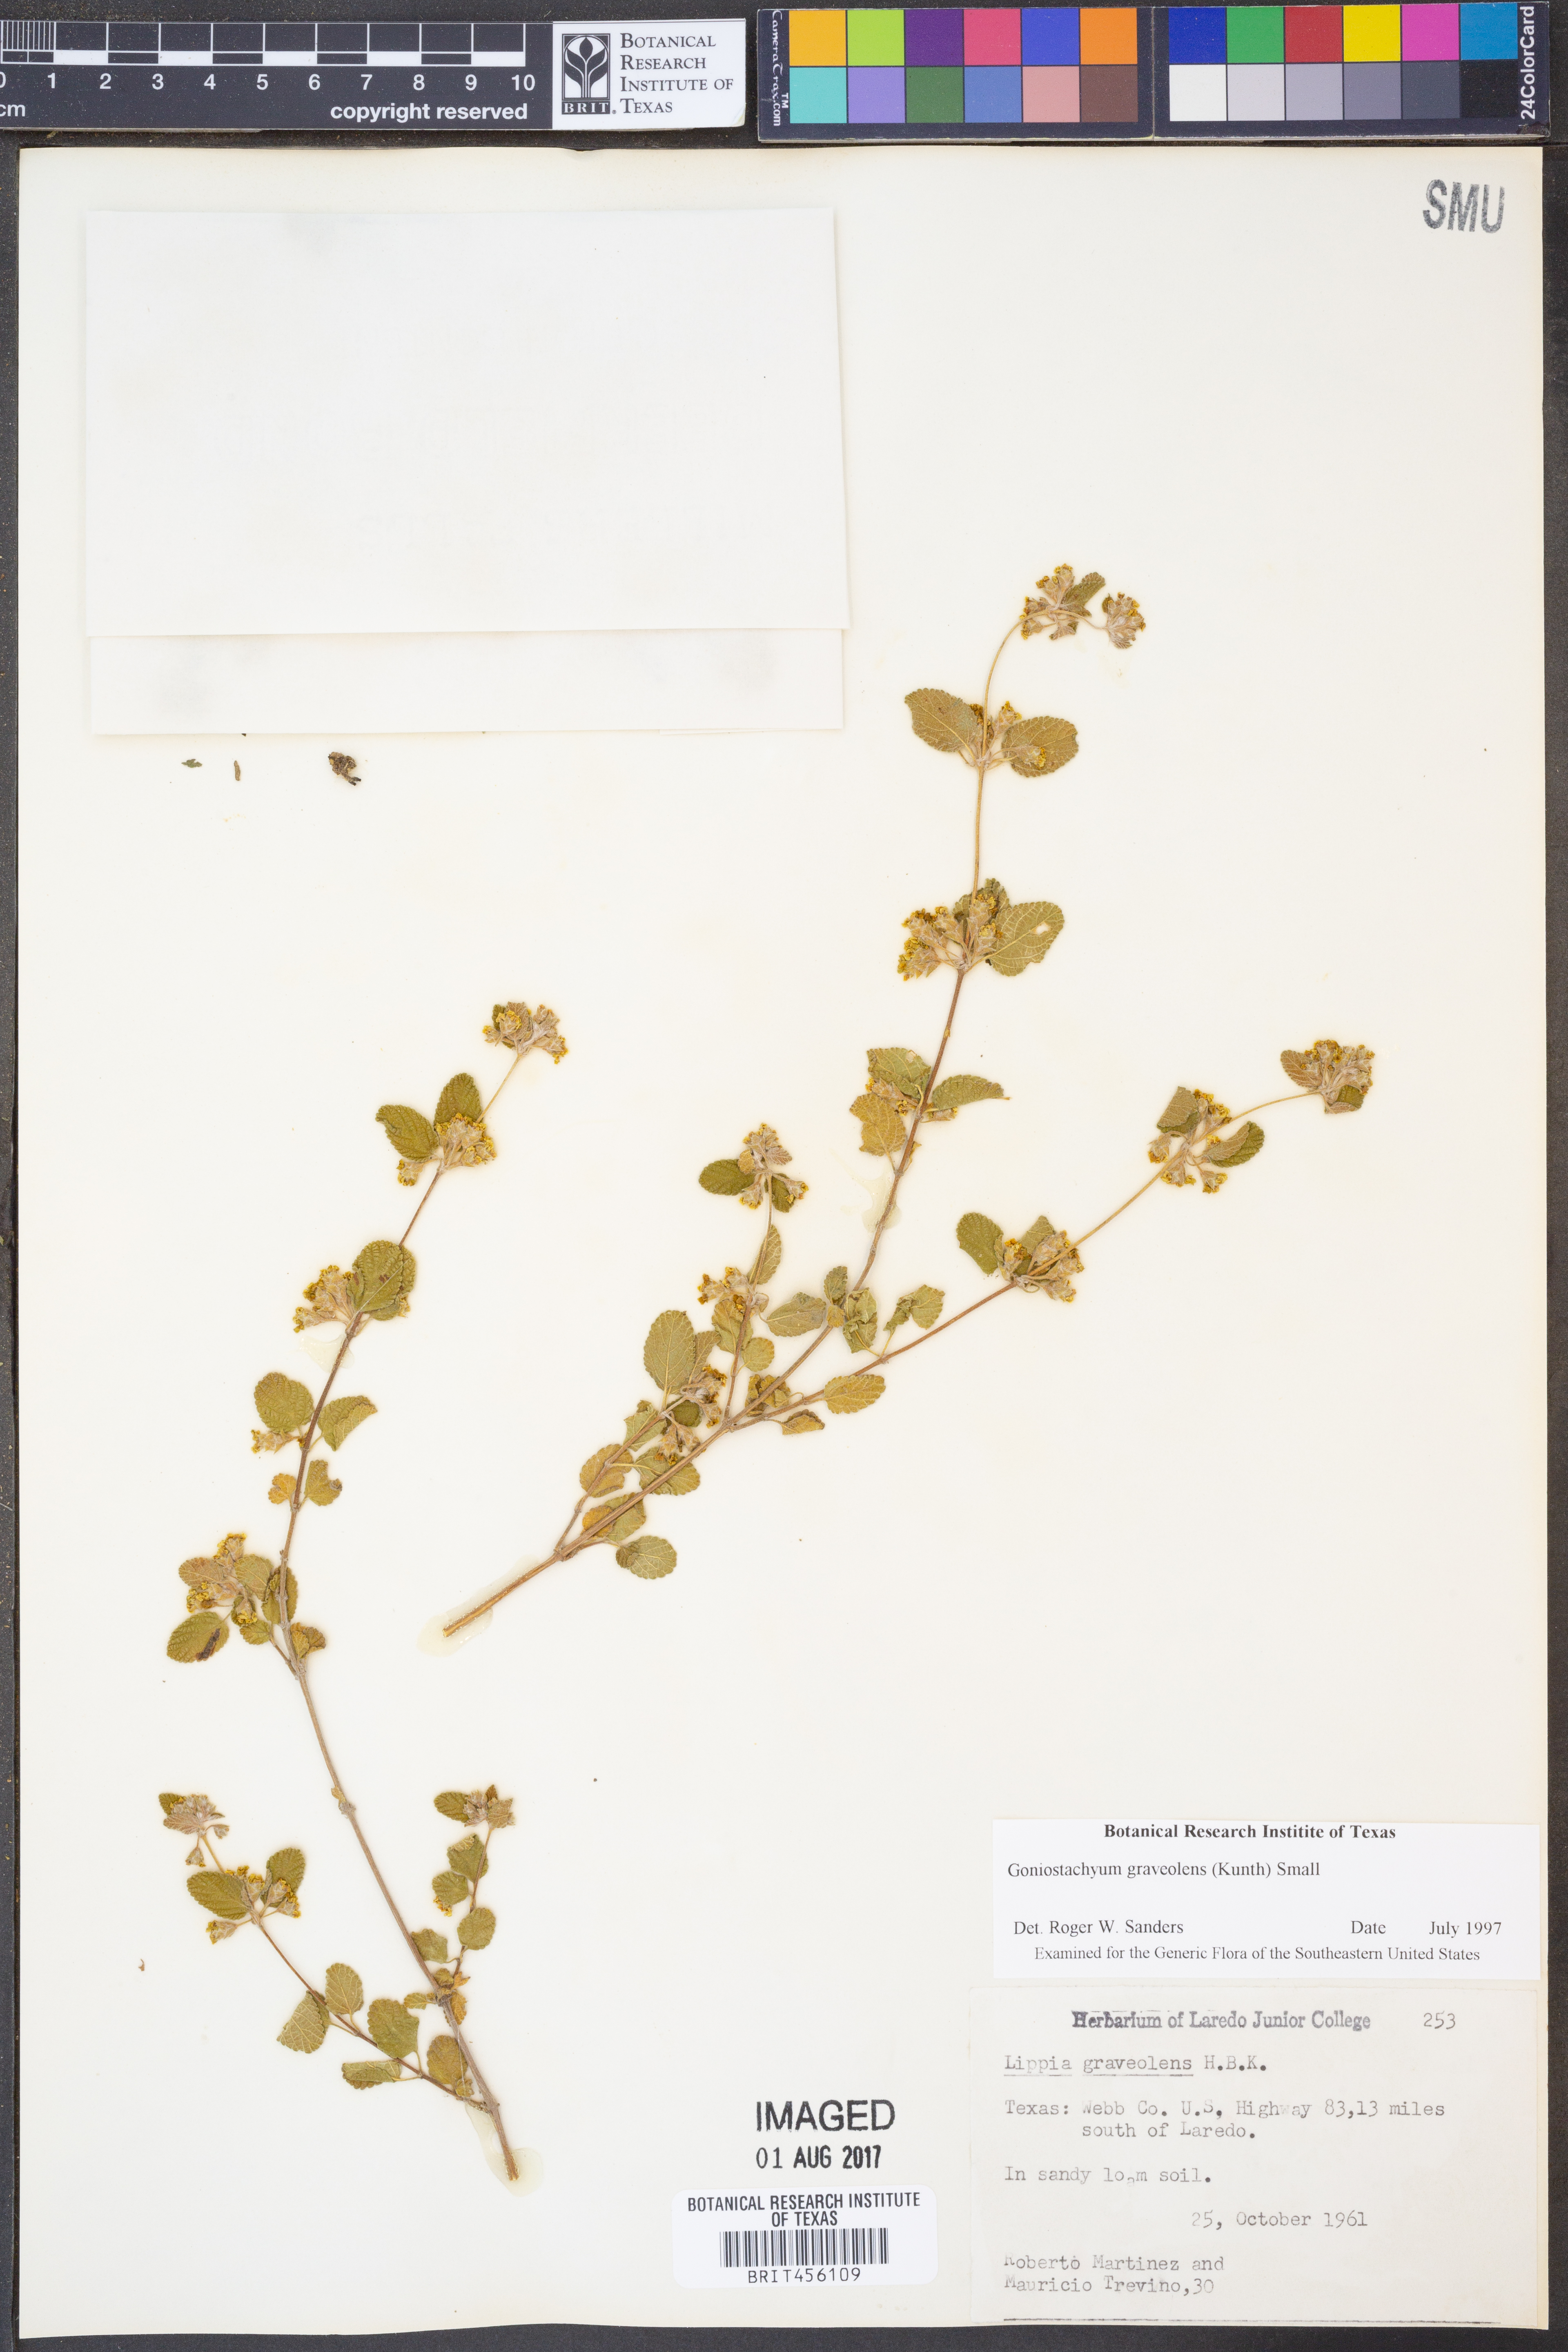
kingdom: Plantae
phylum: Tracheophyta
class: Magnoliopsida
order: Lamiales
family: Verbenaceae
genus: Lippia
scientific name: Lippia origanoides
